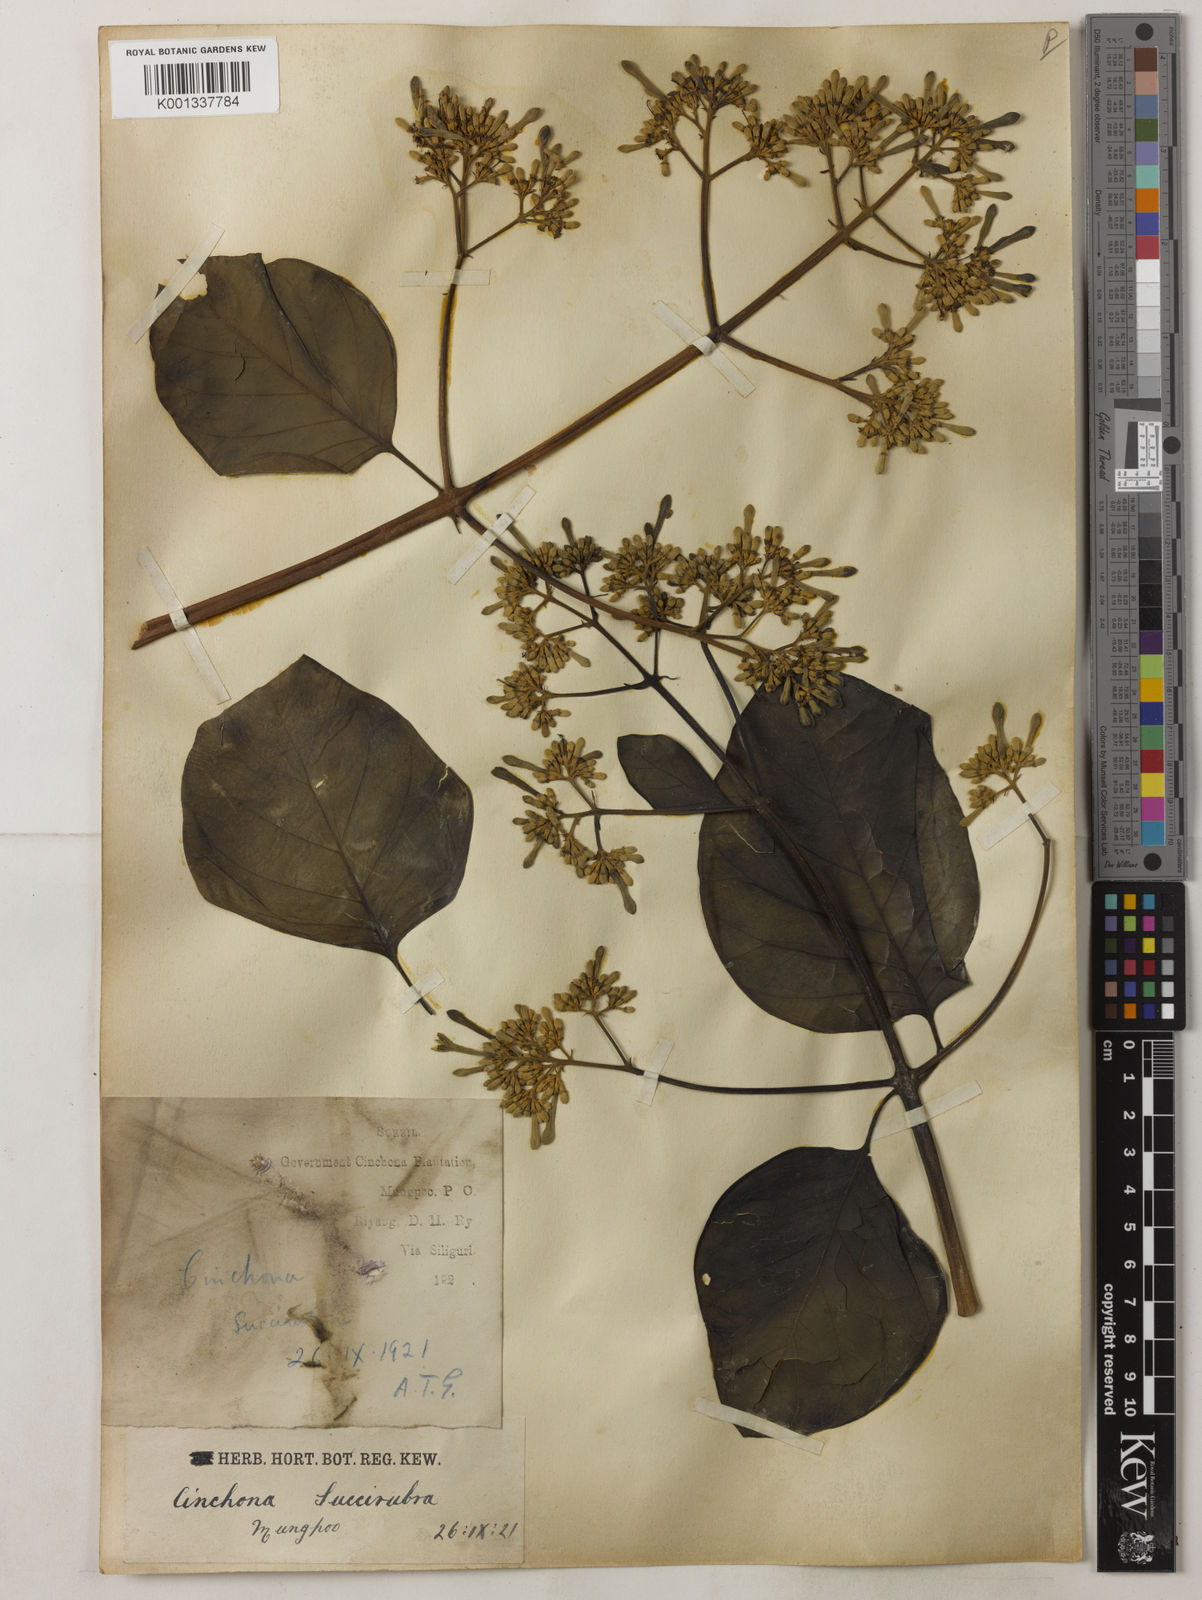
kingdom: Plantae
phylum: Tracheophyta
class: Magnoliopsida
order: Gentianales
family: Rubiaceae
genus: Cinchona
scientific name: Cinchona calisaya
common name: Ledgerbark
